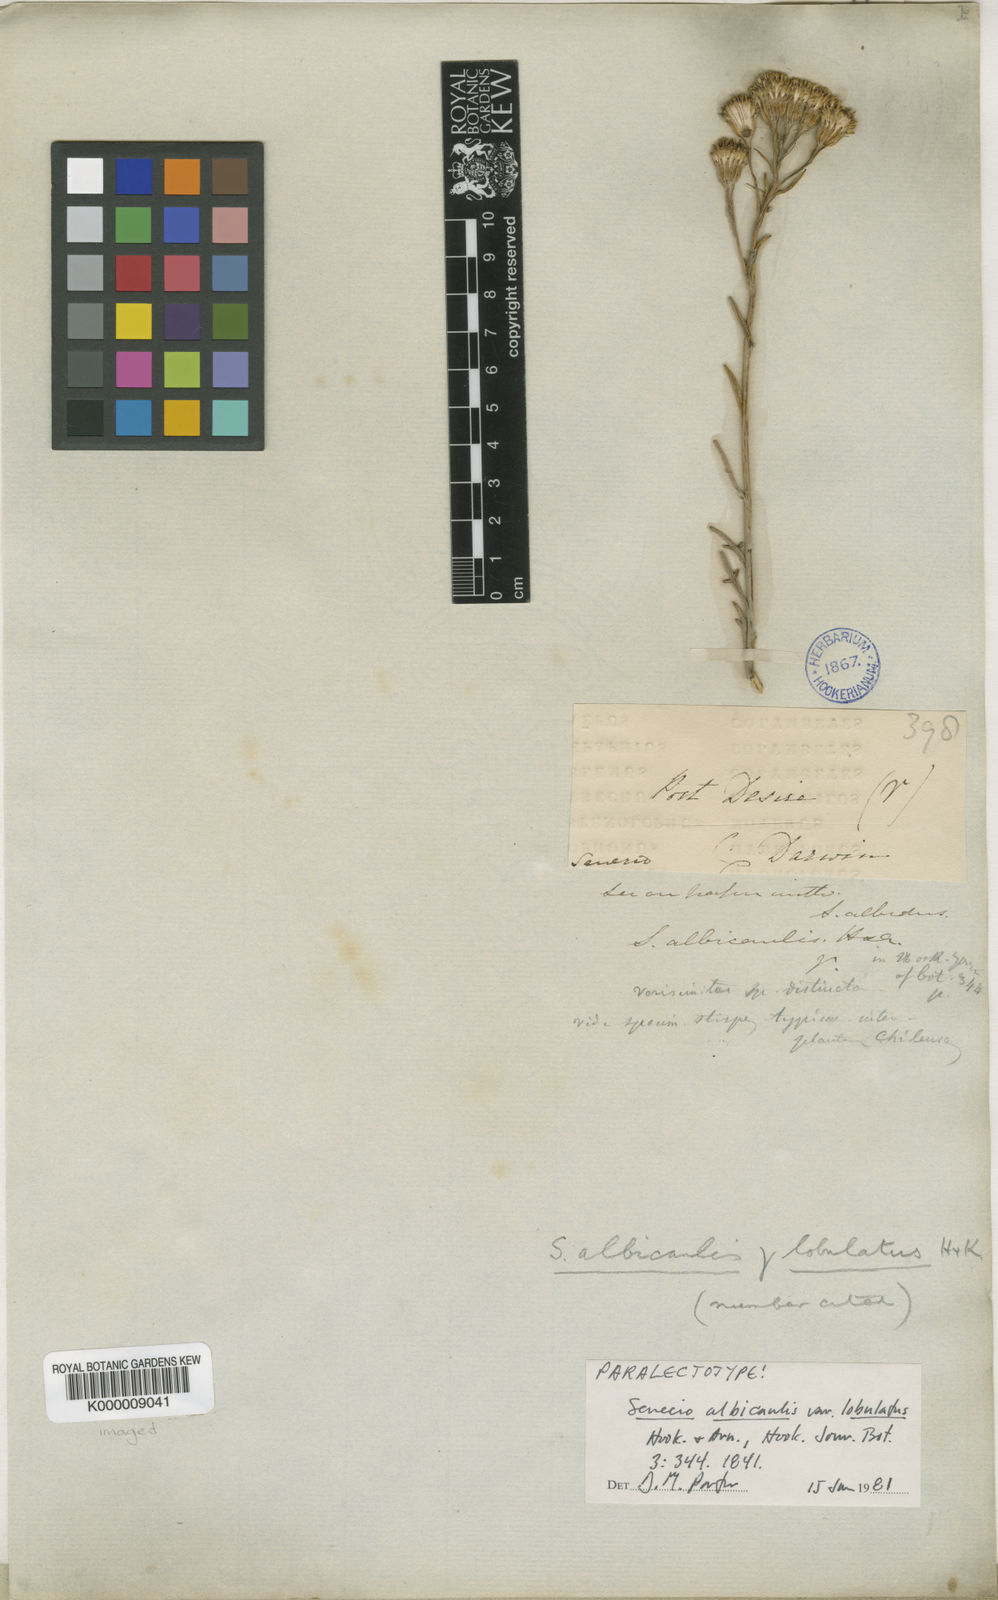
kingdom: Plantae
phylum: Tracheophyta
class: Magnoliopsida
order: Asterales
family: Asteraceae
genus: Senecio
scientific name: Senecio filaginoides
